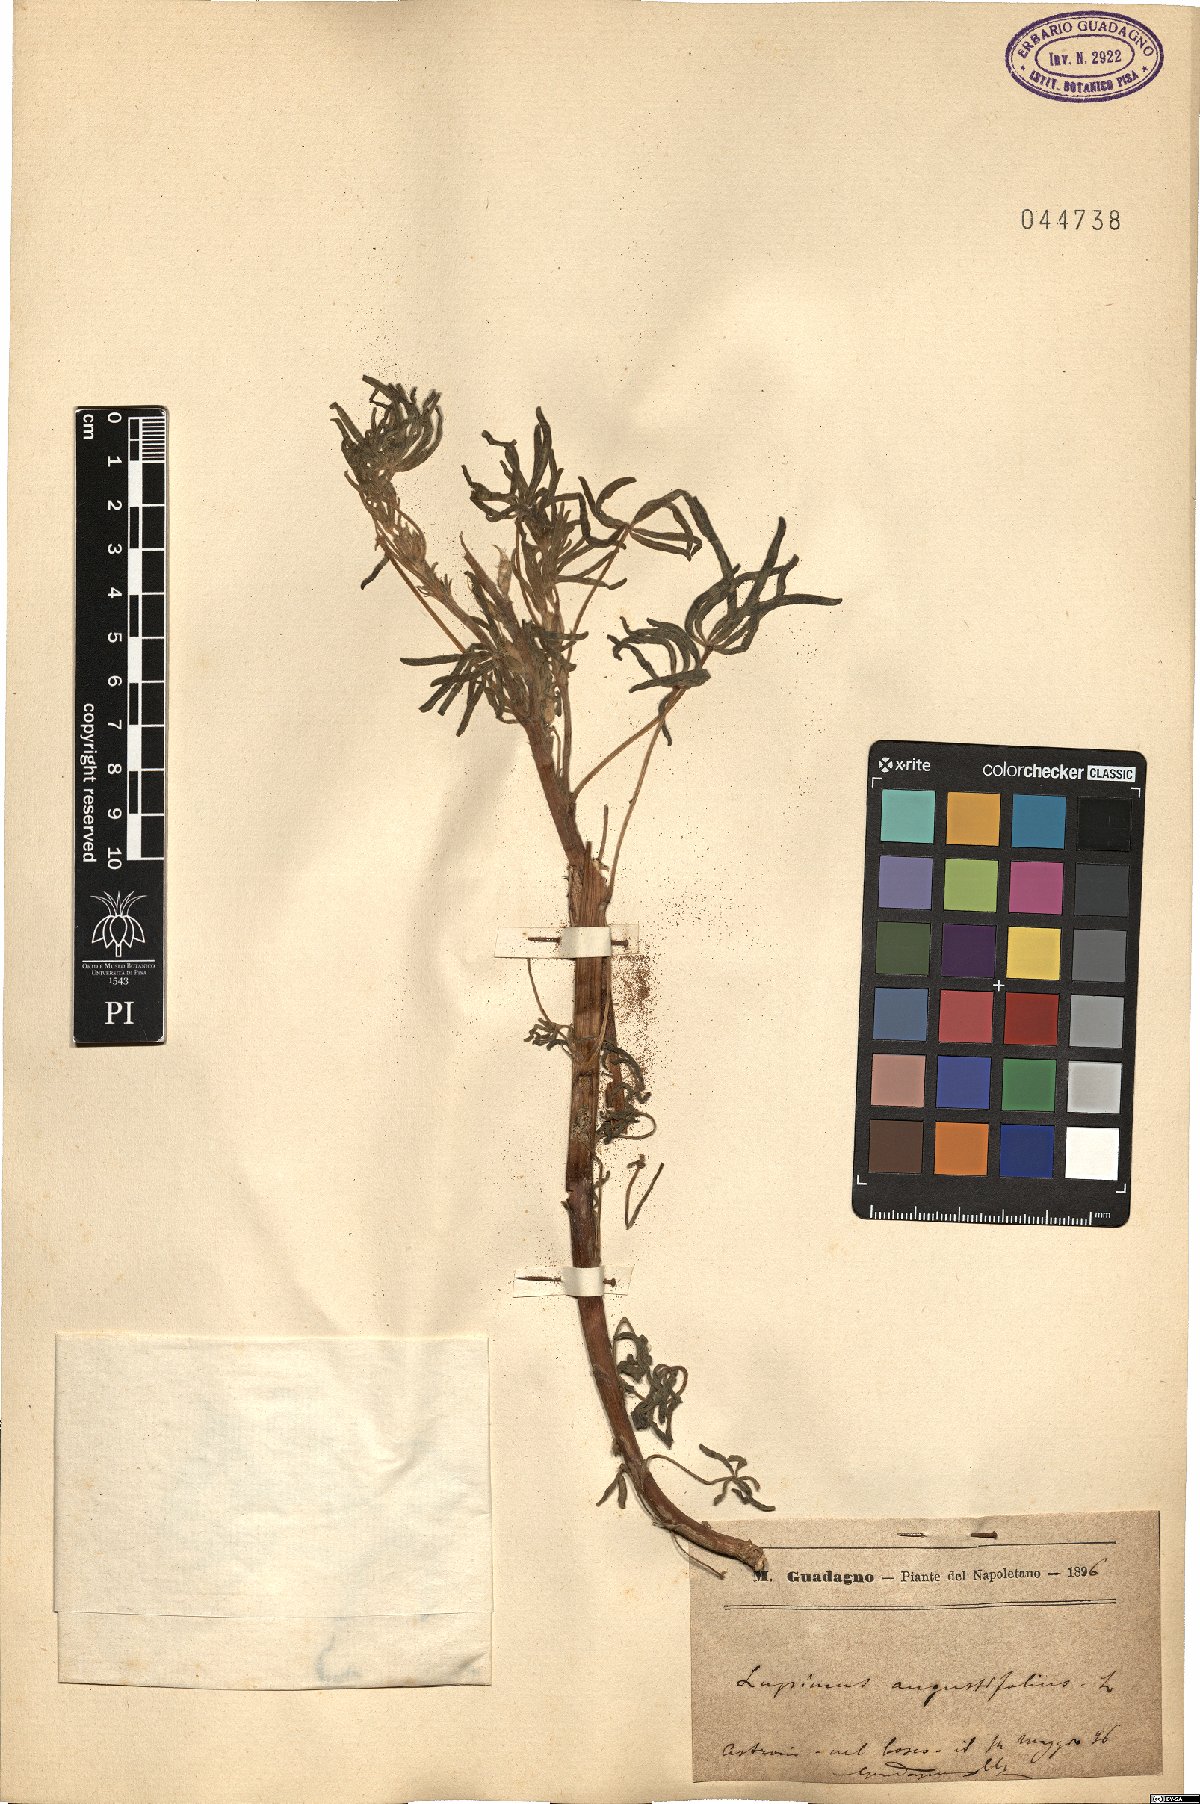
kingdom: Plantae
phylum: Tracheophyta
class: Magnoliopsida
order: Fabales
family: Fabaceae
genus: Lupinus
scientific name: Lupinus angustifolius
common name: Narrow-leaved lupin
